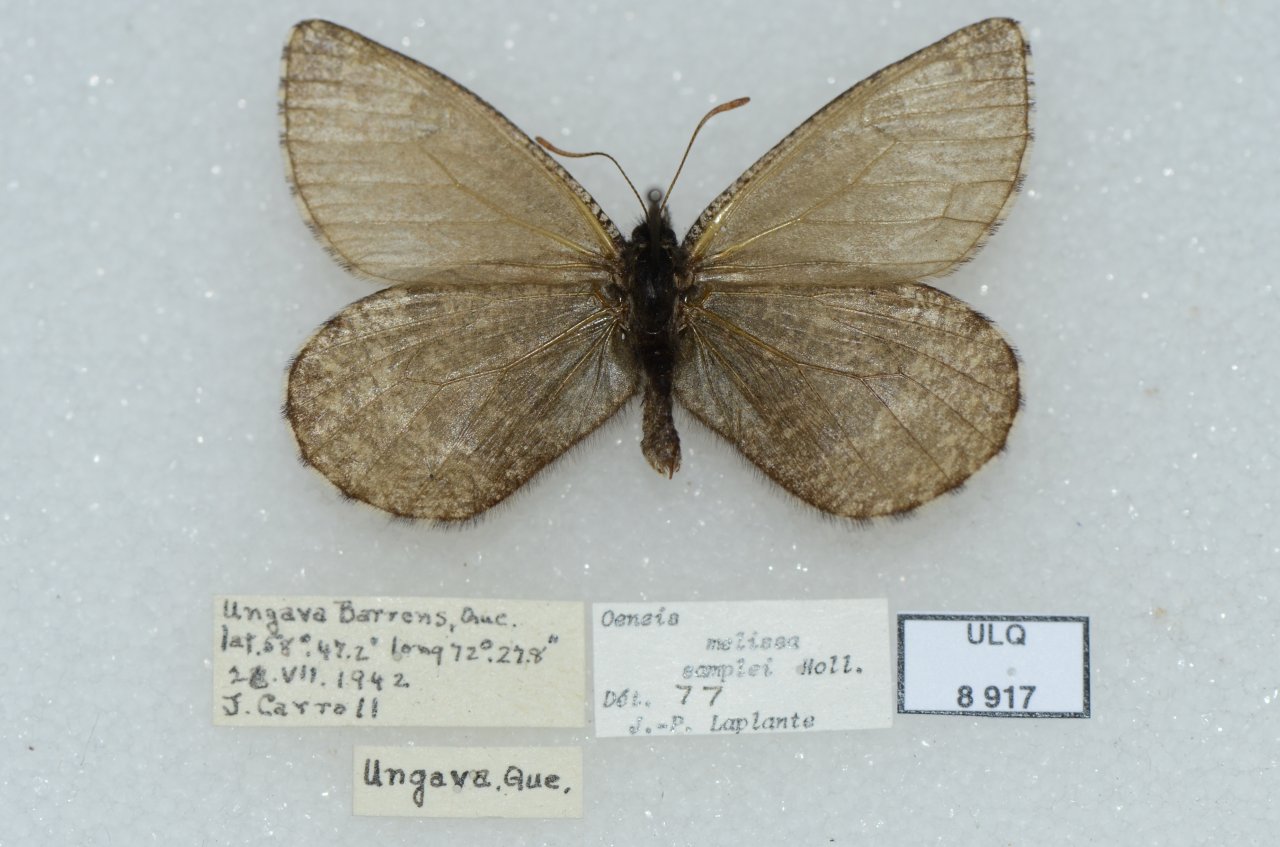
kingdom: Animalia
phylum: Arthropoda
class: Insecta
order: Lepidoptera
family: Nymphalidae
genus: Oeneis
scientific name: Oeneis melissa
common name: Melissa Arctic
